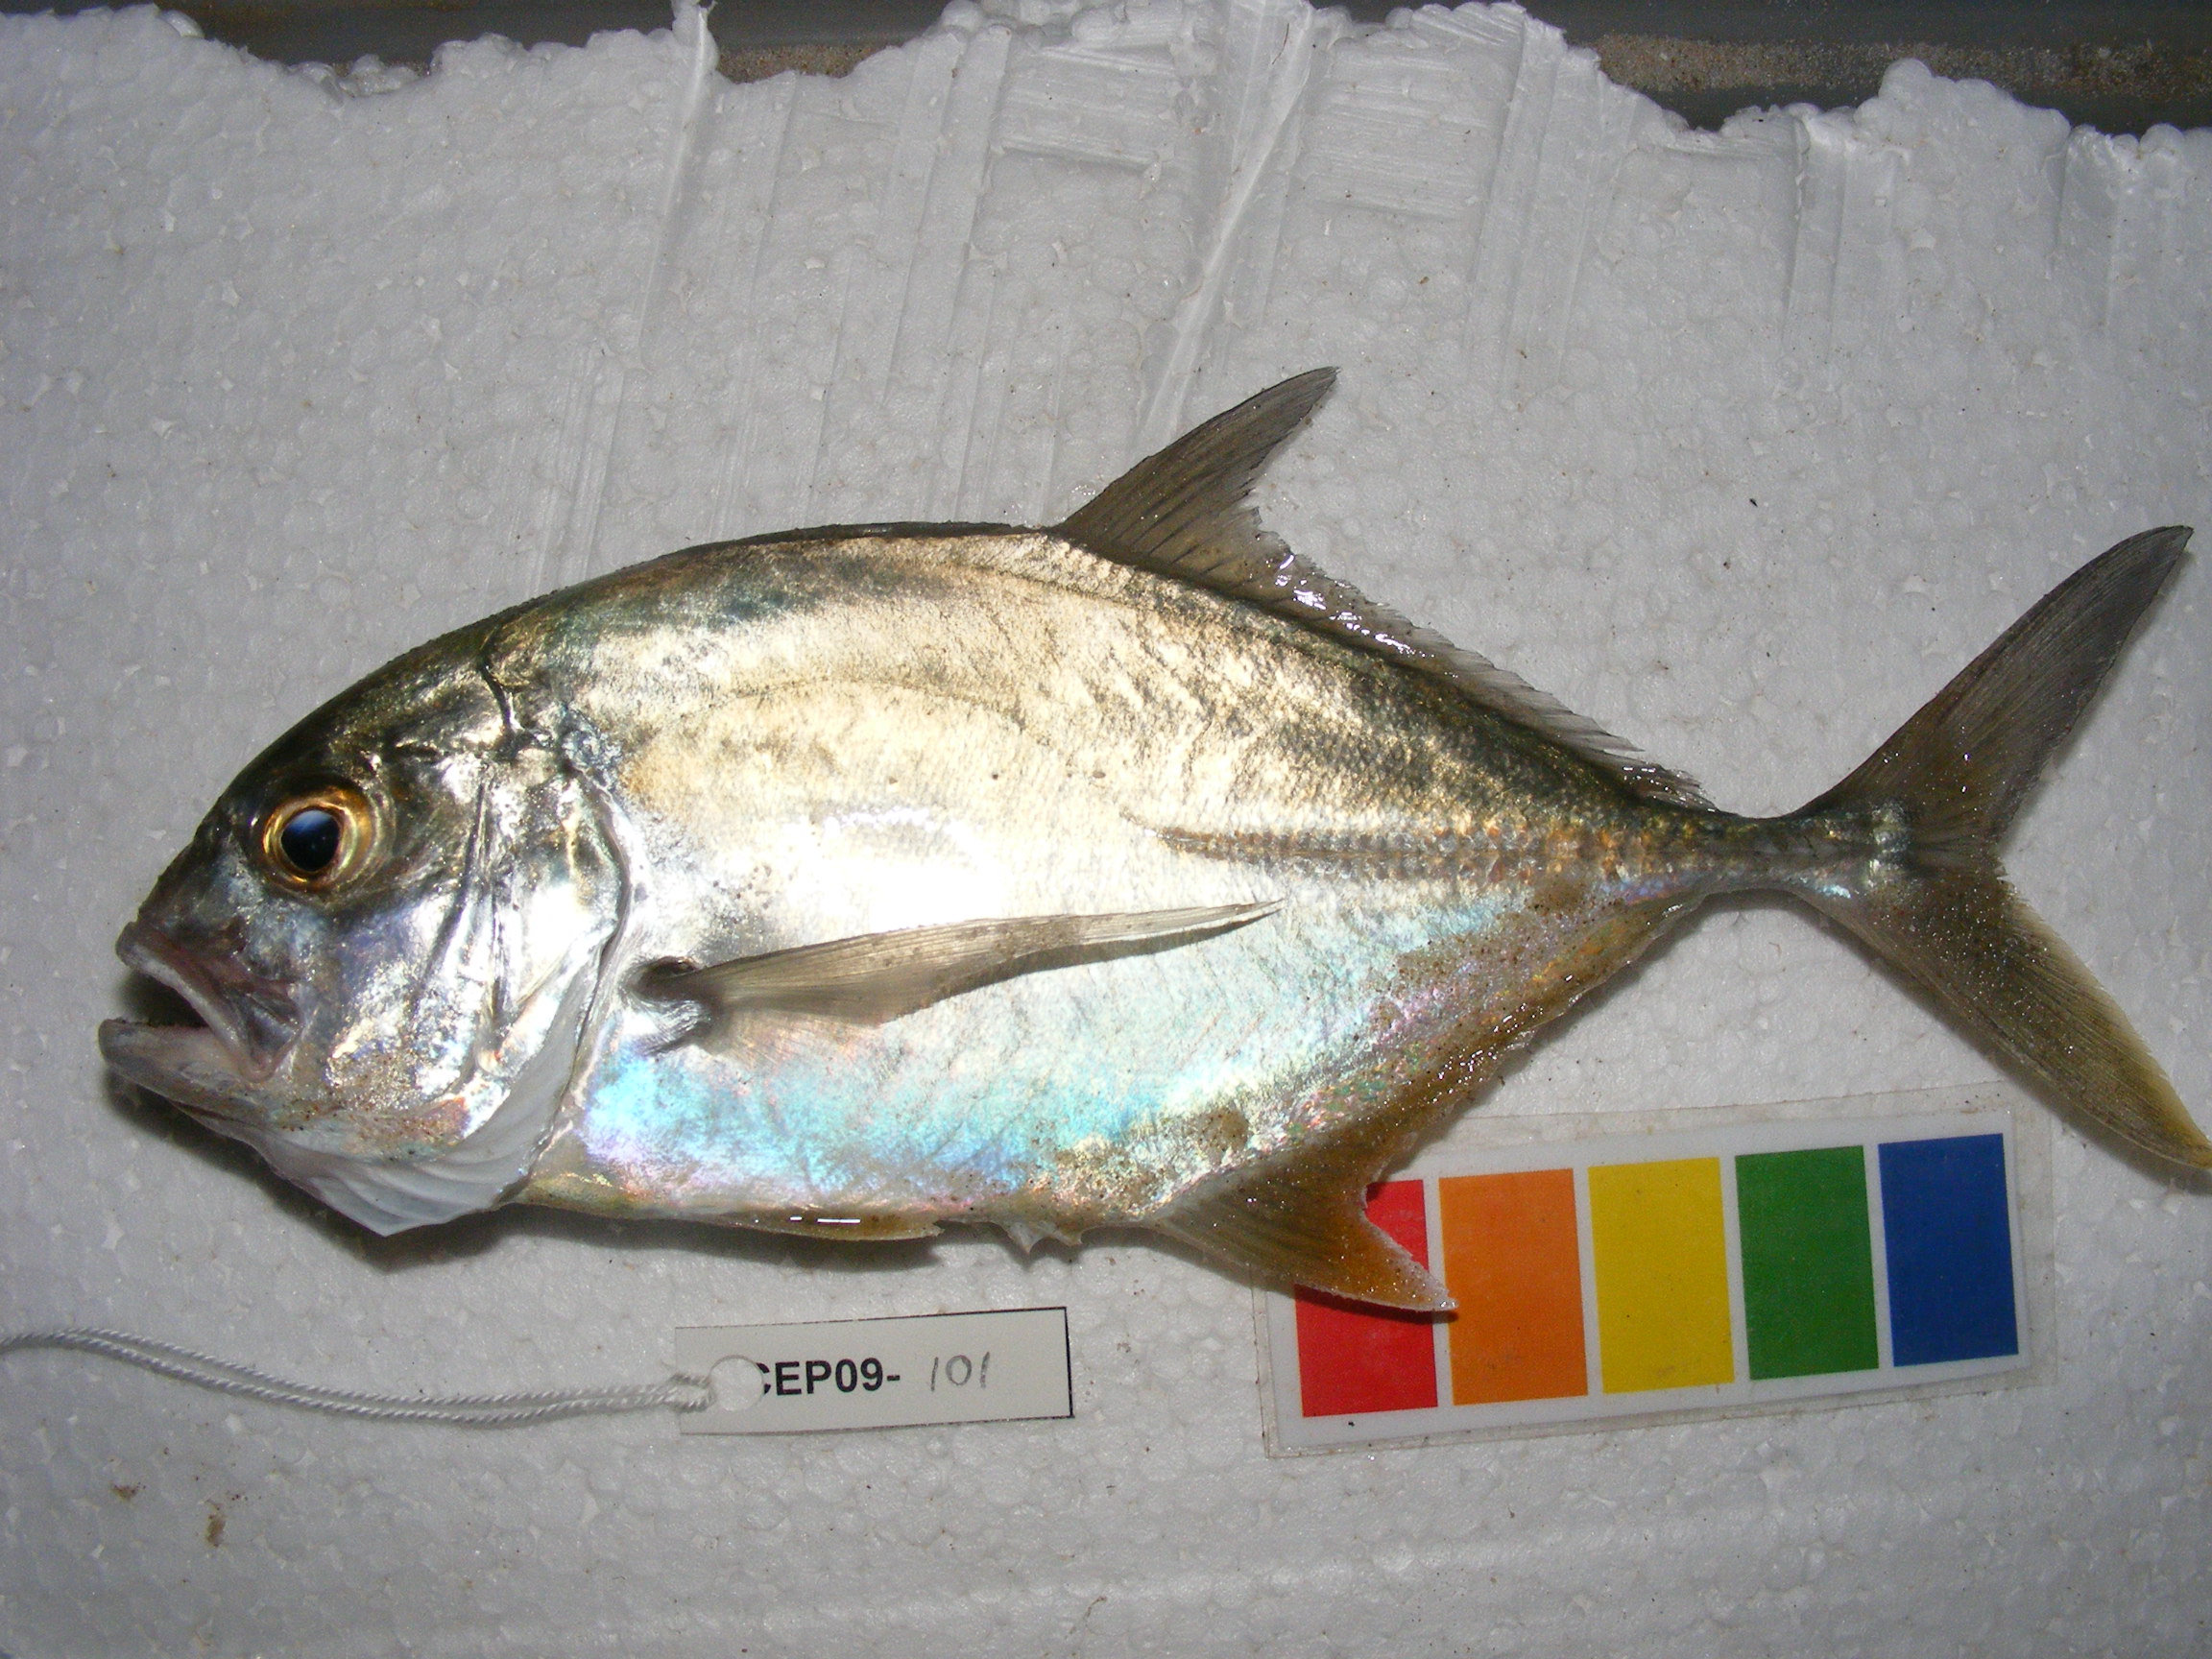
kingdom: Animalia
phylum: Chordata
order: Perciformes
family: Carangidae
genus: Caranx
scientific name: Caranx lugubris
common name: Black jack
